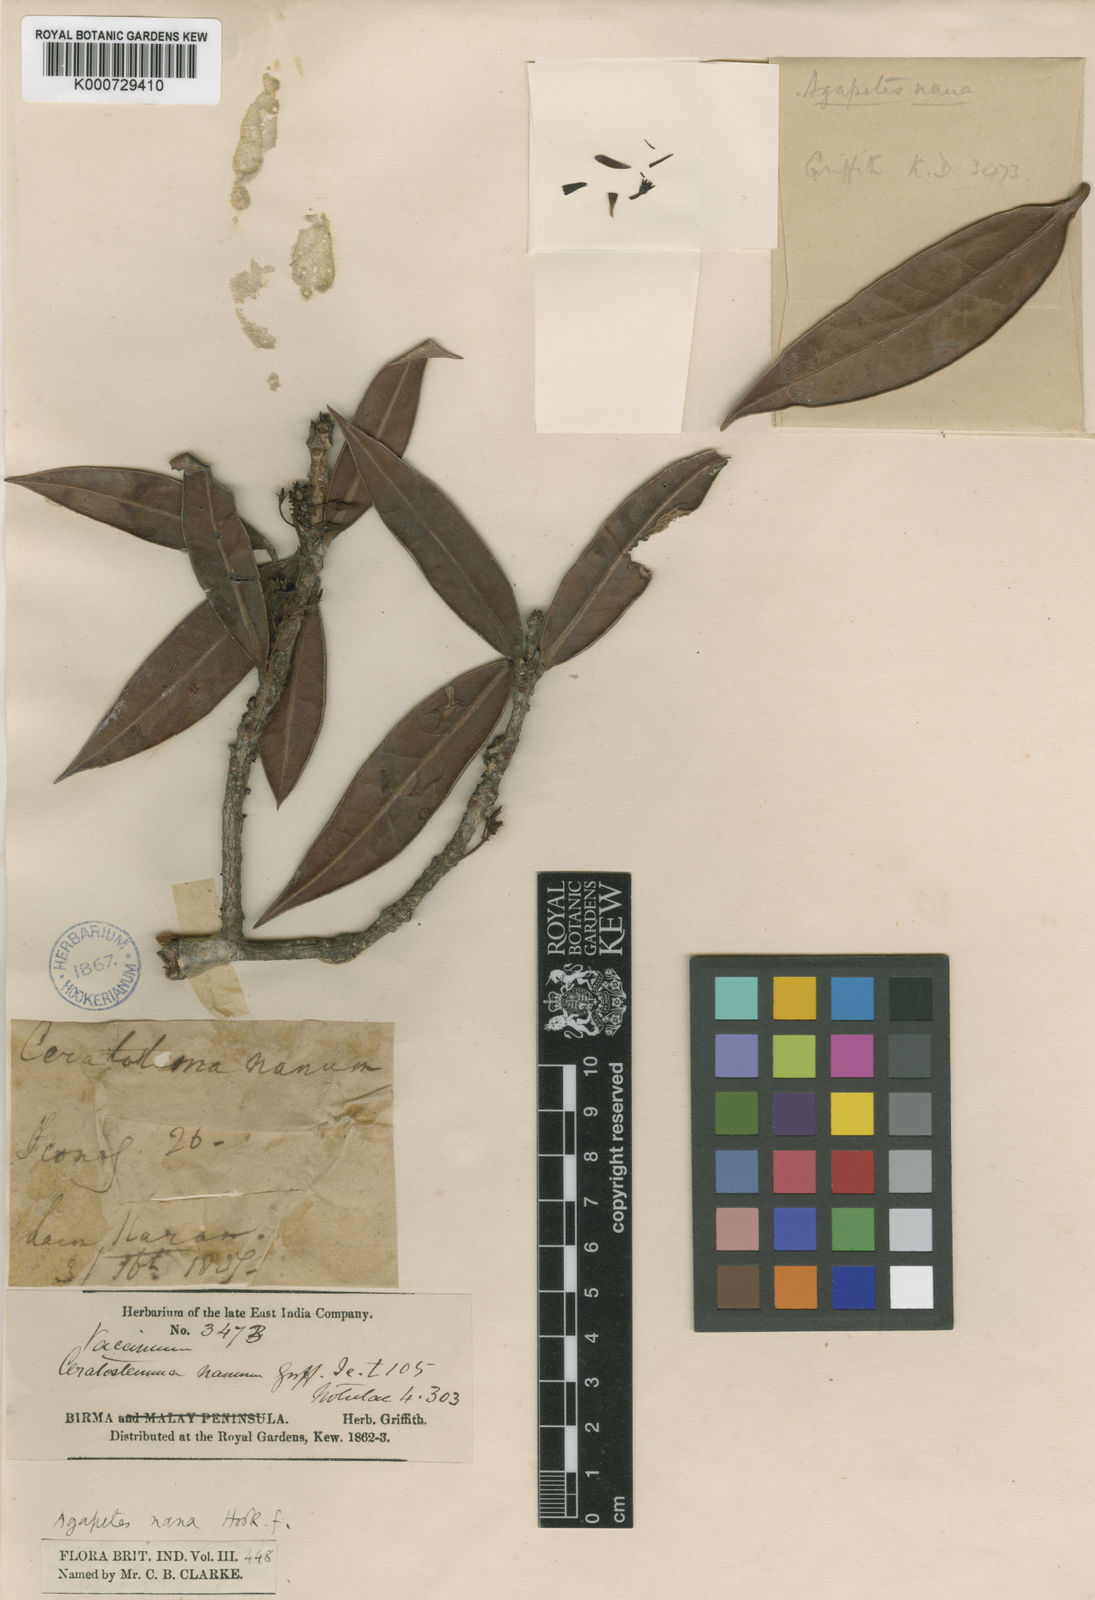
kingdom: Plantae
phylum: Tracheophyta
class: Magnoliopsida
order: Ericales
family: Ericaceae
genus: Agapetes
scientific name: Agapetes nana
